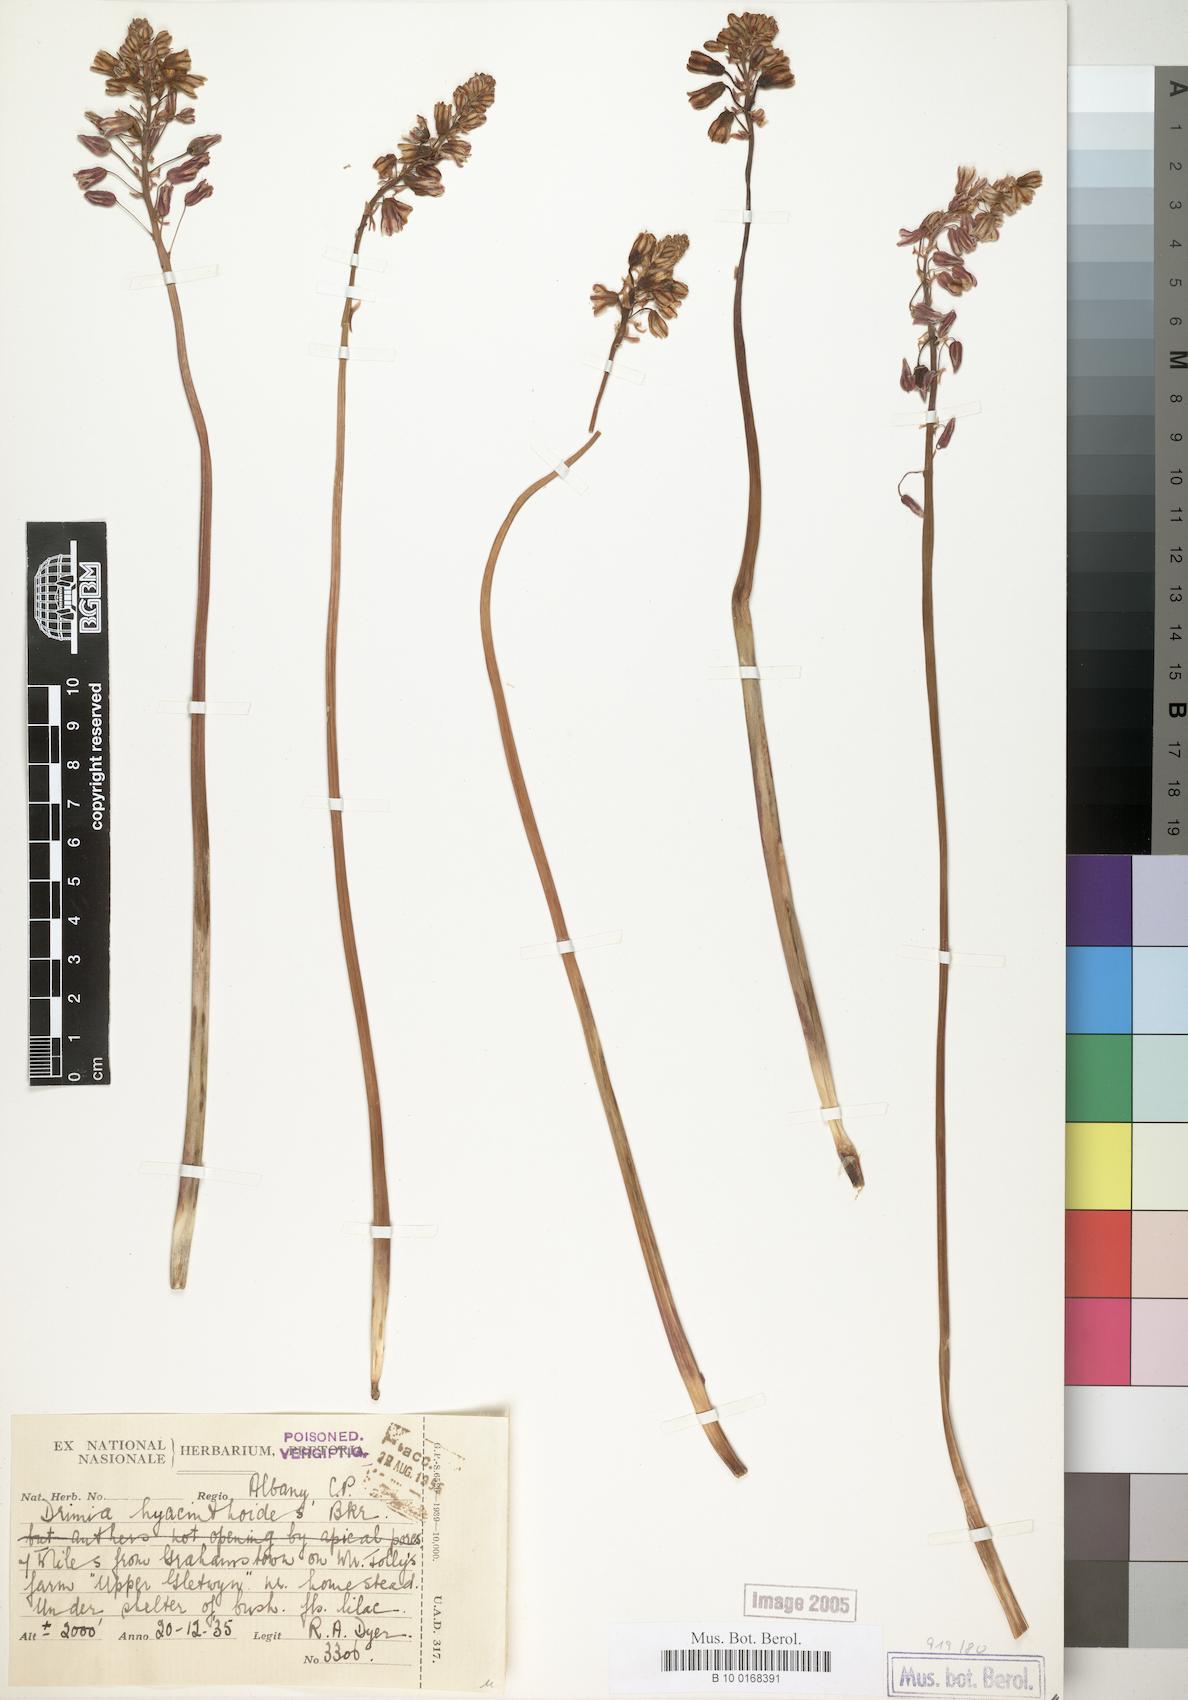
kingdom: Plantae
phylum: Tracheophyta
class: Liliopsida
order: Asparagales
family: Asparagaceae
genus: Drimia
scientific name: Drimia hyacinthoides
